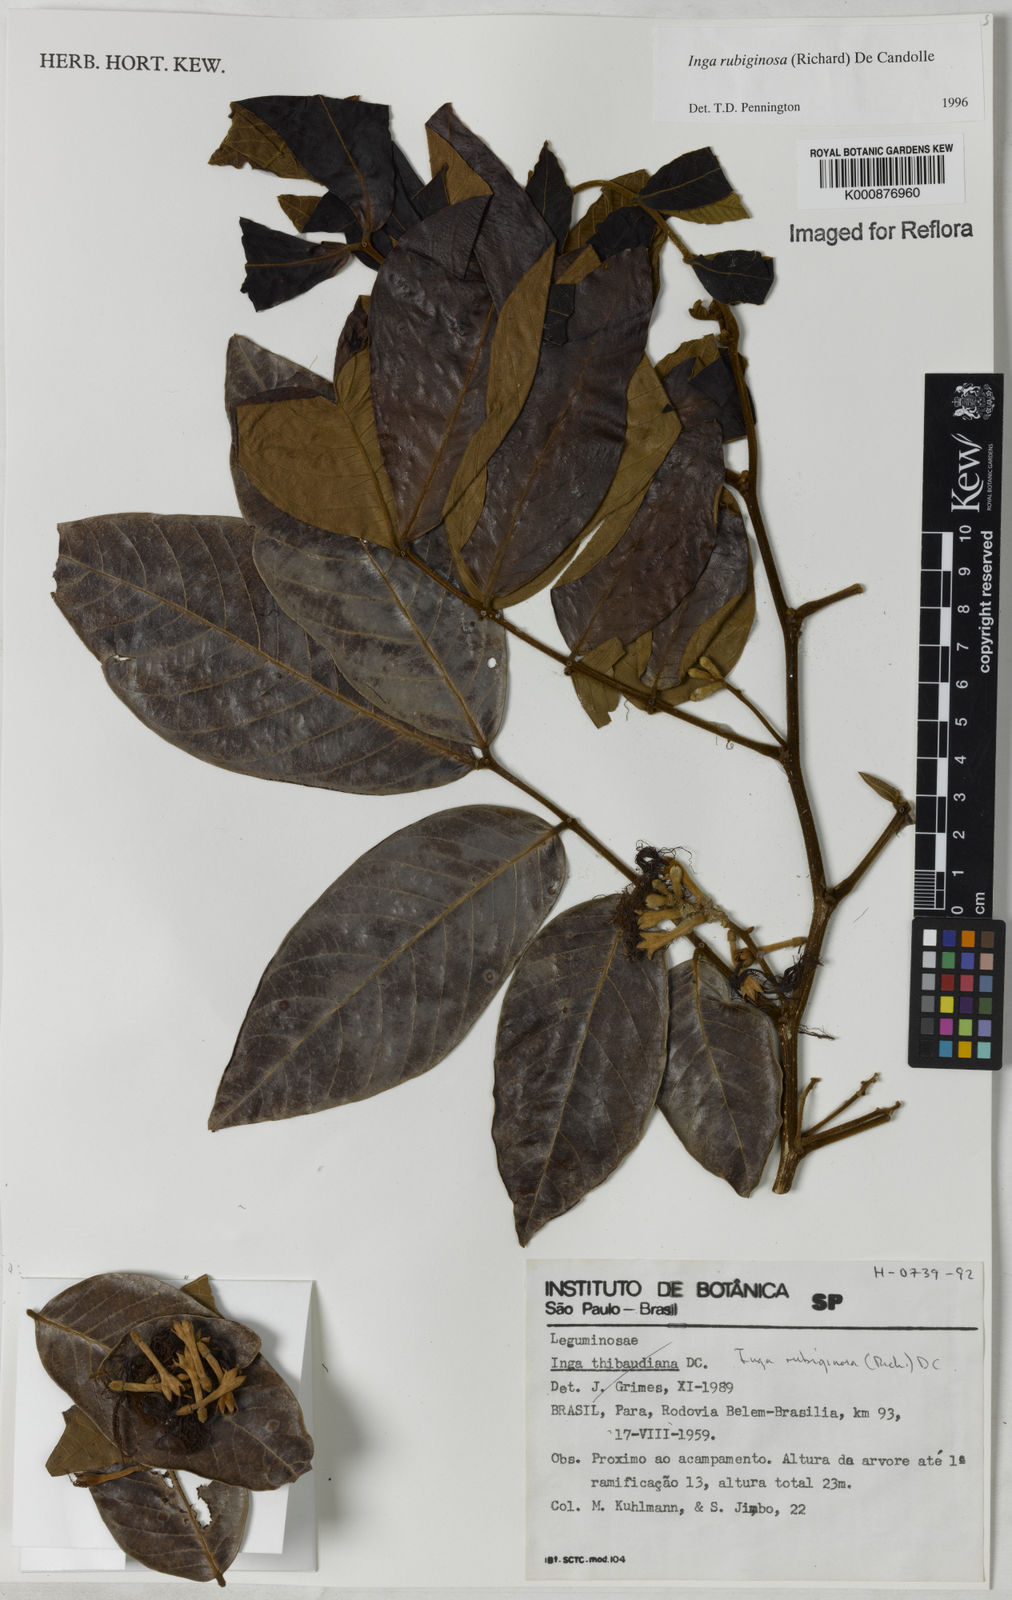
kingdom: Plantae
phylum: Tracheophyta
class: Magnoliopsida
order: Fabales
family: Fabaceae
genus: Inga
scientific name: Inga rubiginosa
